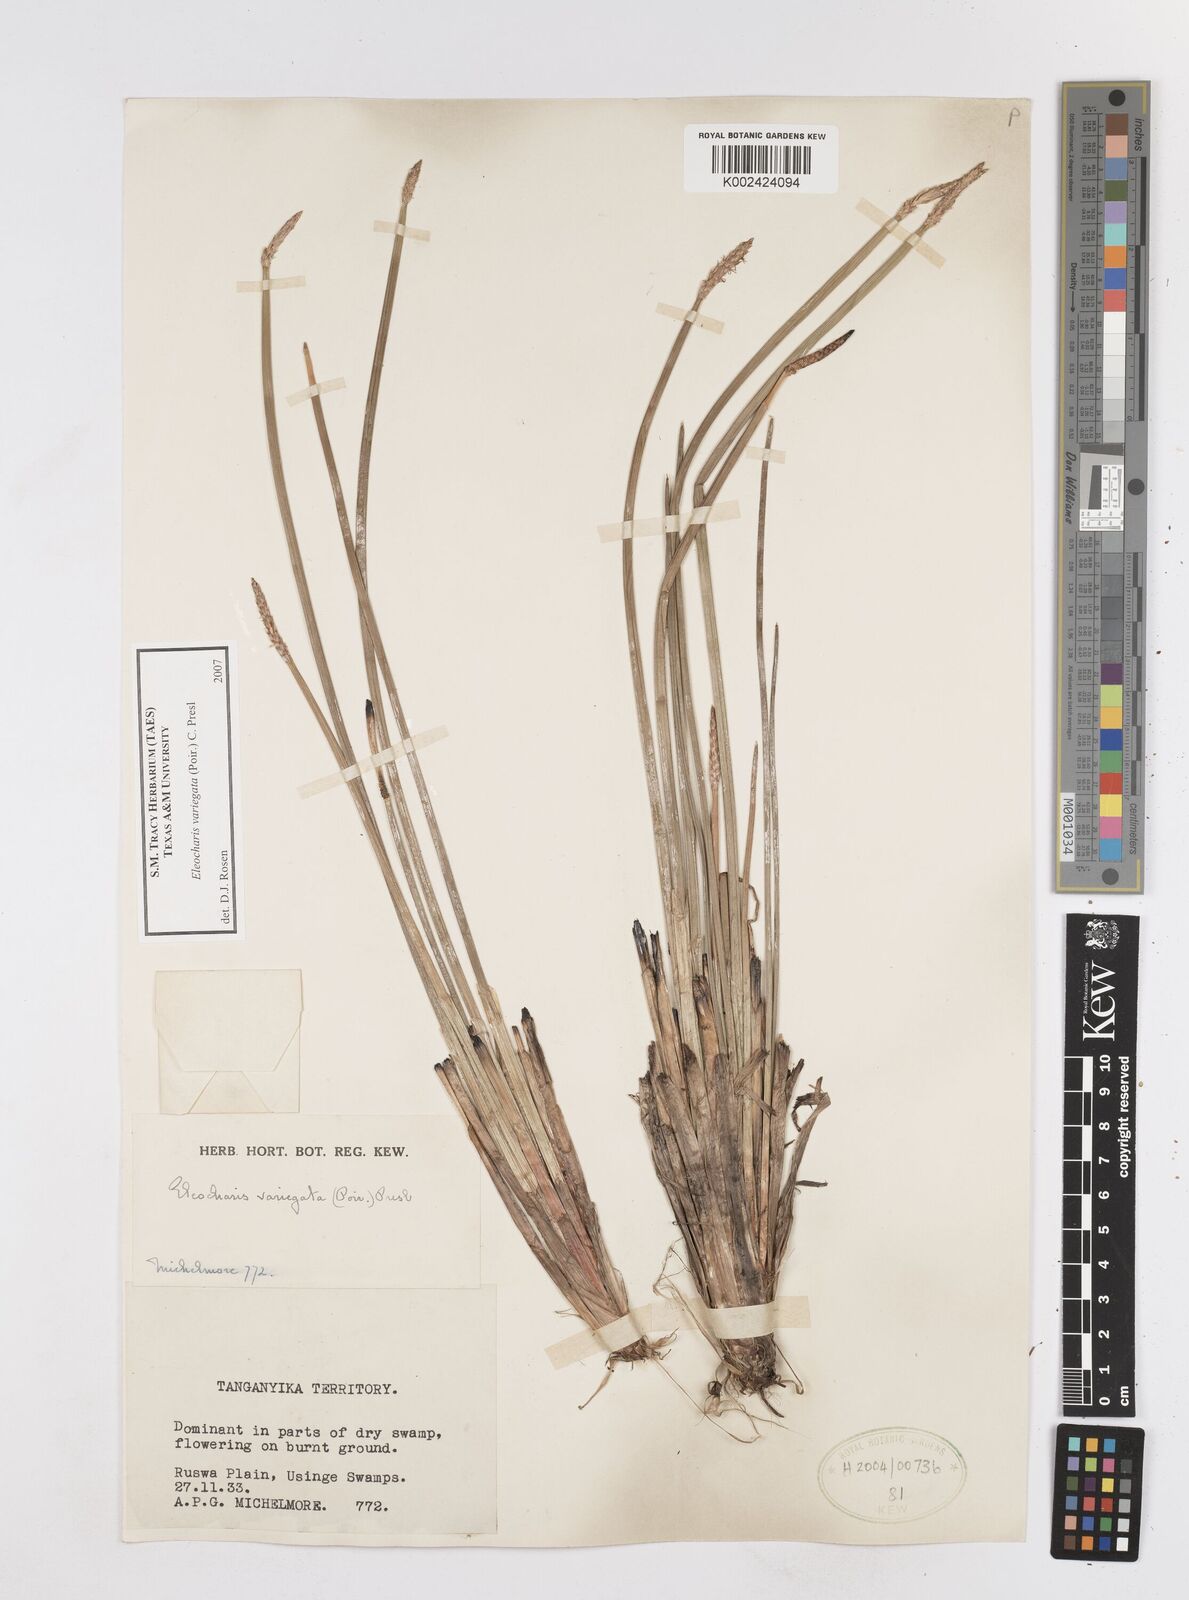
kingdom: Plantae
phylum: Tracheophyta
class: Liliopsida
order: Poales
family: Cyperaceae
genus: Eleocharis
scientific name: Eleocharis variegata
